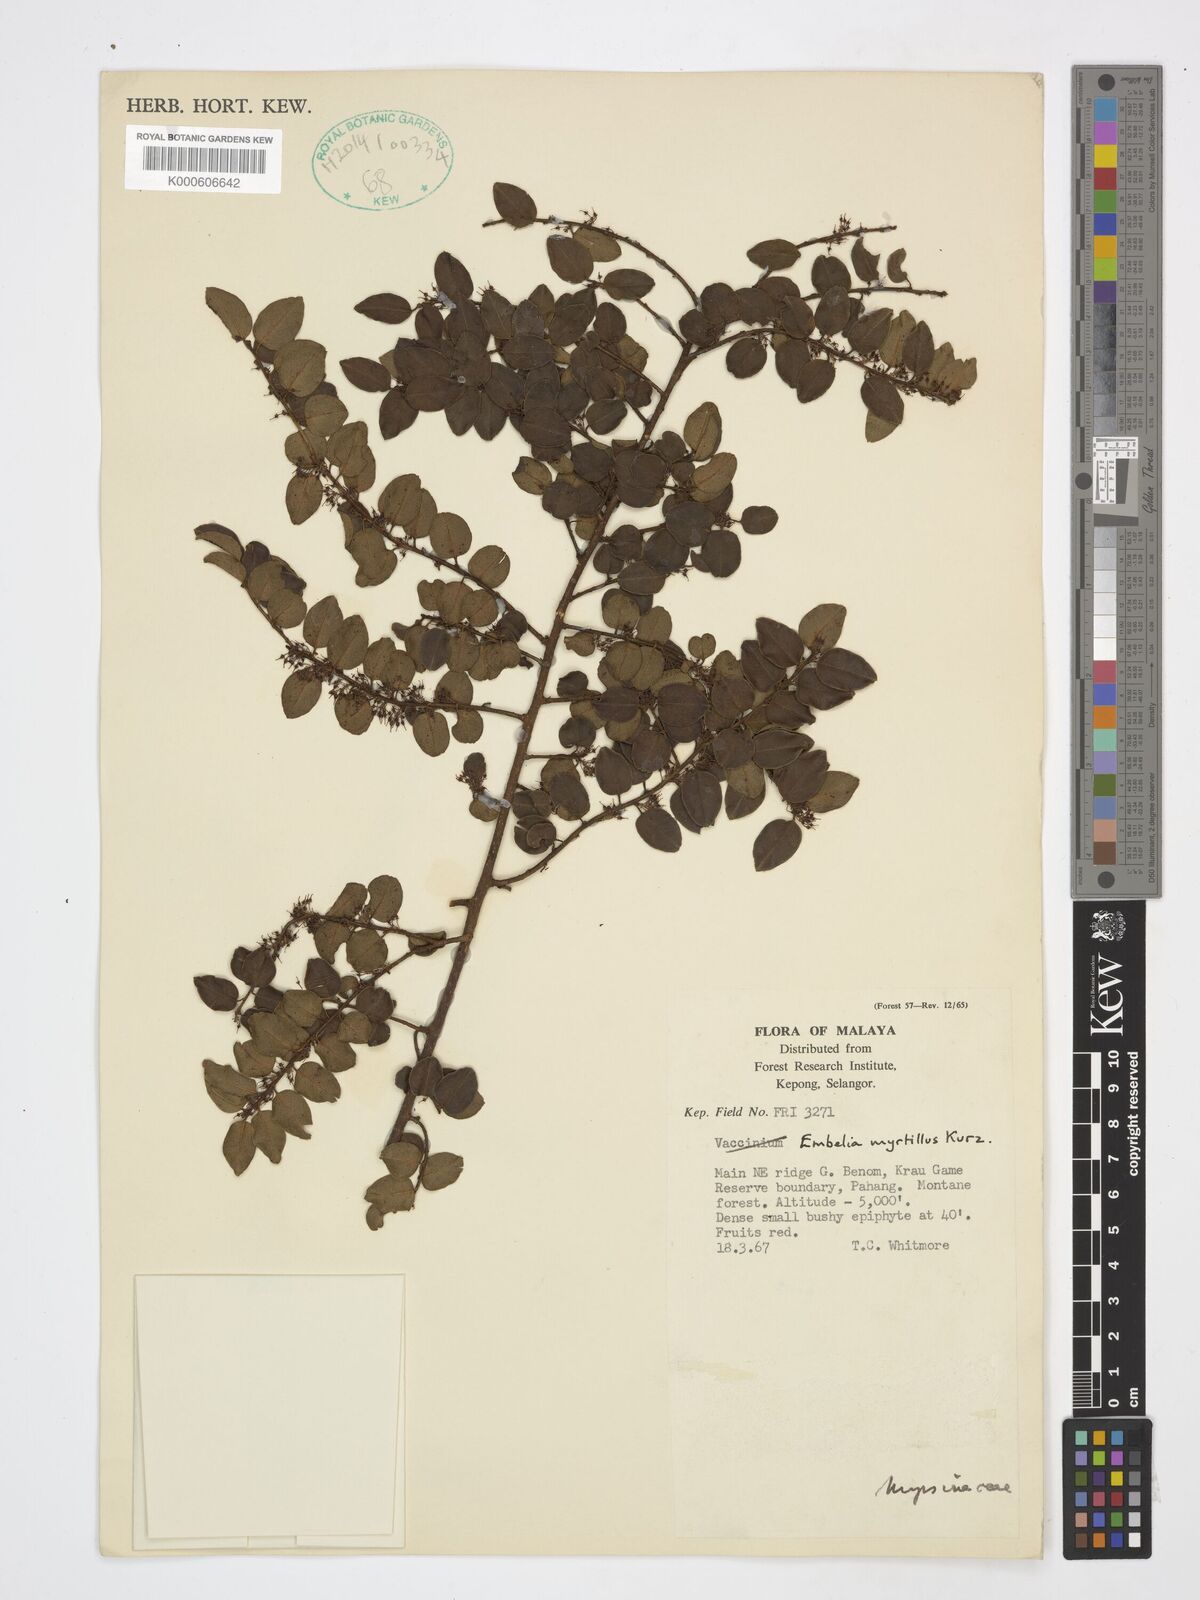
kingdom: Plantae
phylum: Tracheophyta
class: Magnoliopsida
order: Ericales
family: Primulaceae
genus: Embelia
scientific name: Embelia myrtillus
